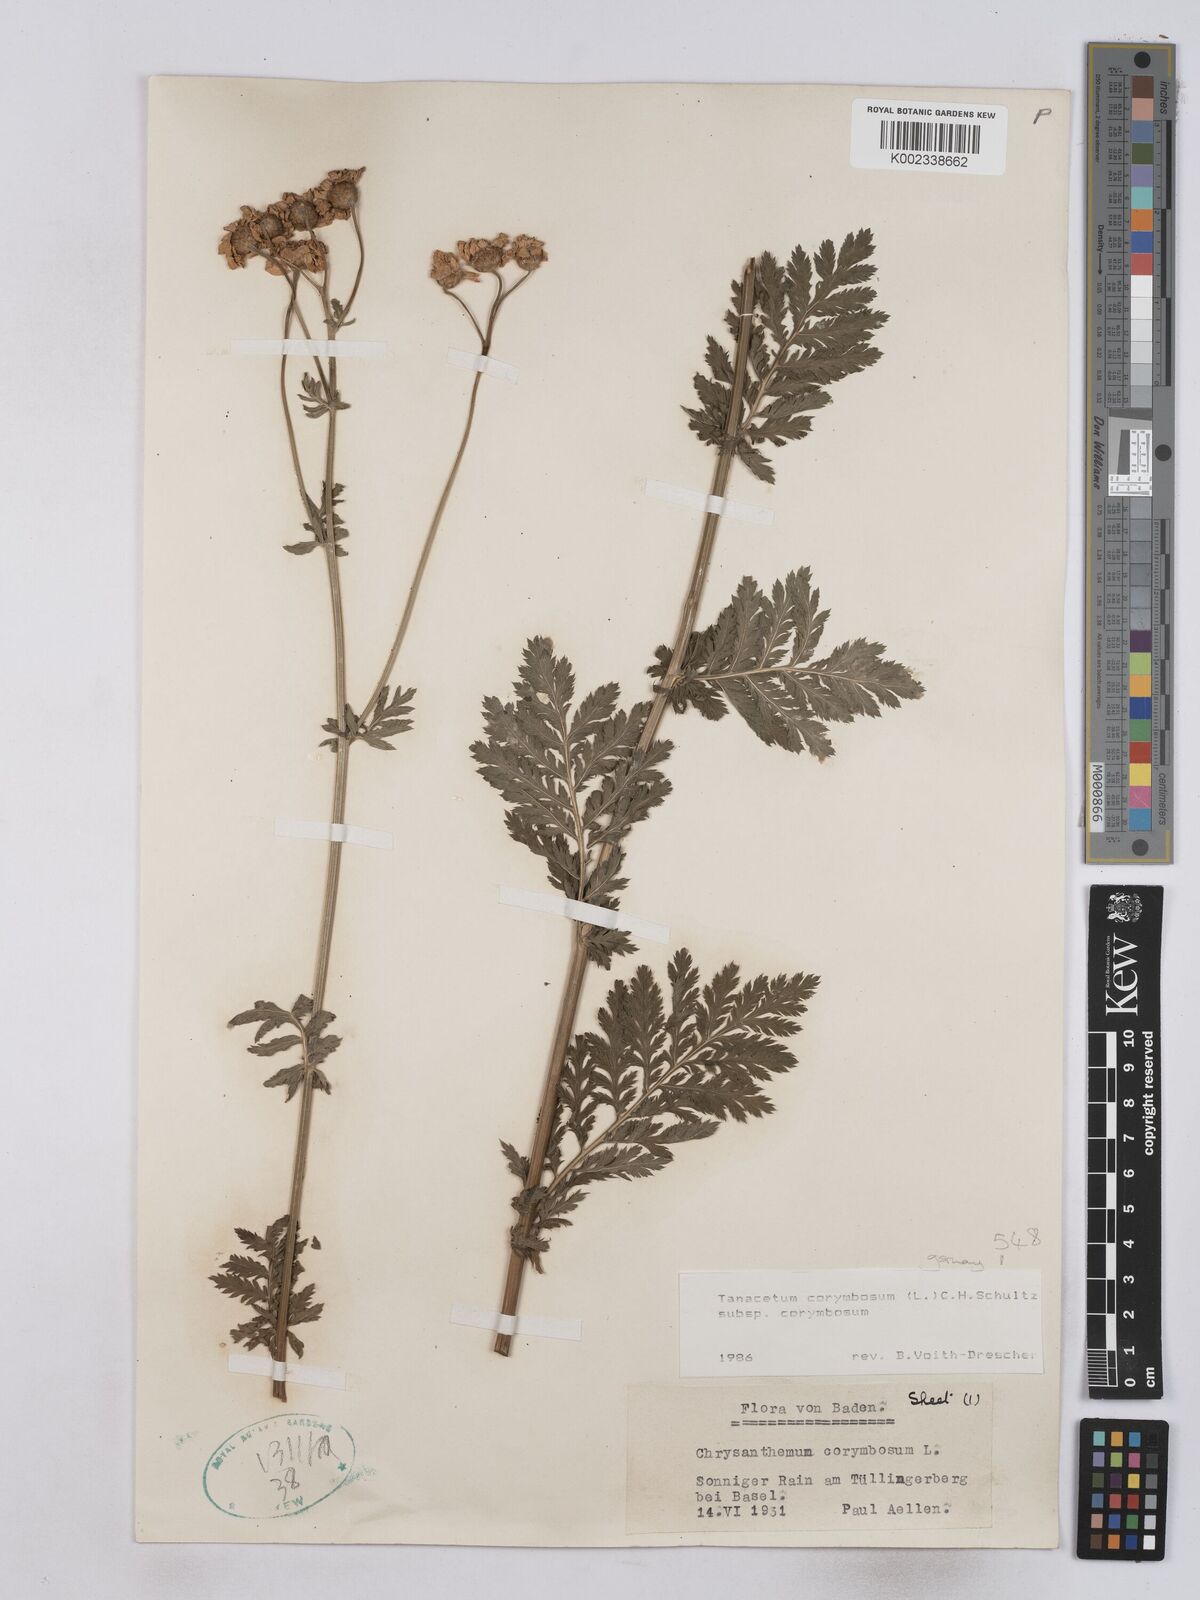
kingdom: Plantae
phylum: Tracheophyta
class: Magnoliopsida
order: Asterales
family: Asteraceae
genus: Tanacetum
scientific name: Tanacetum corymbosum
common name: Scentless feverfew
